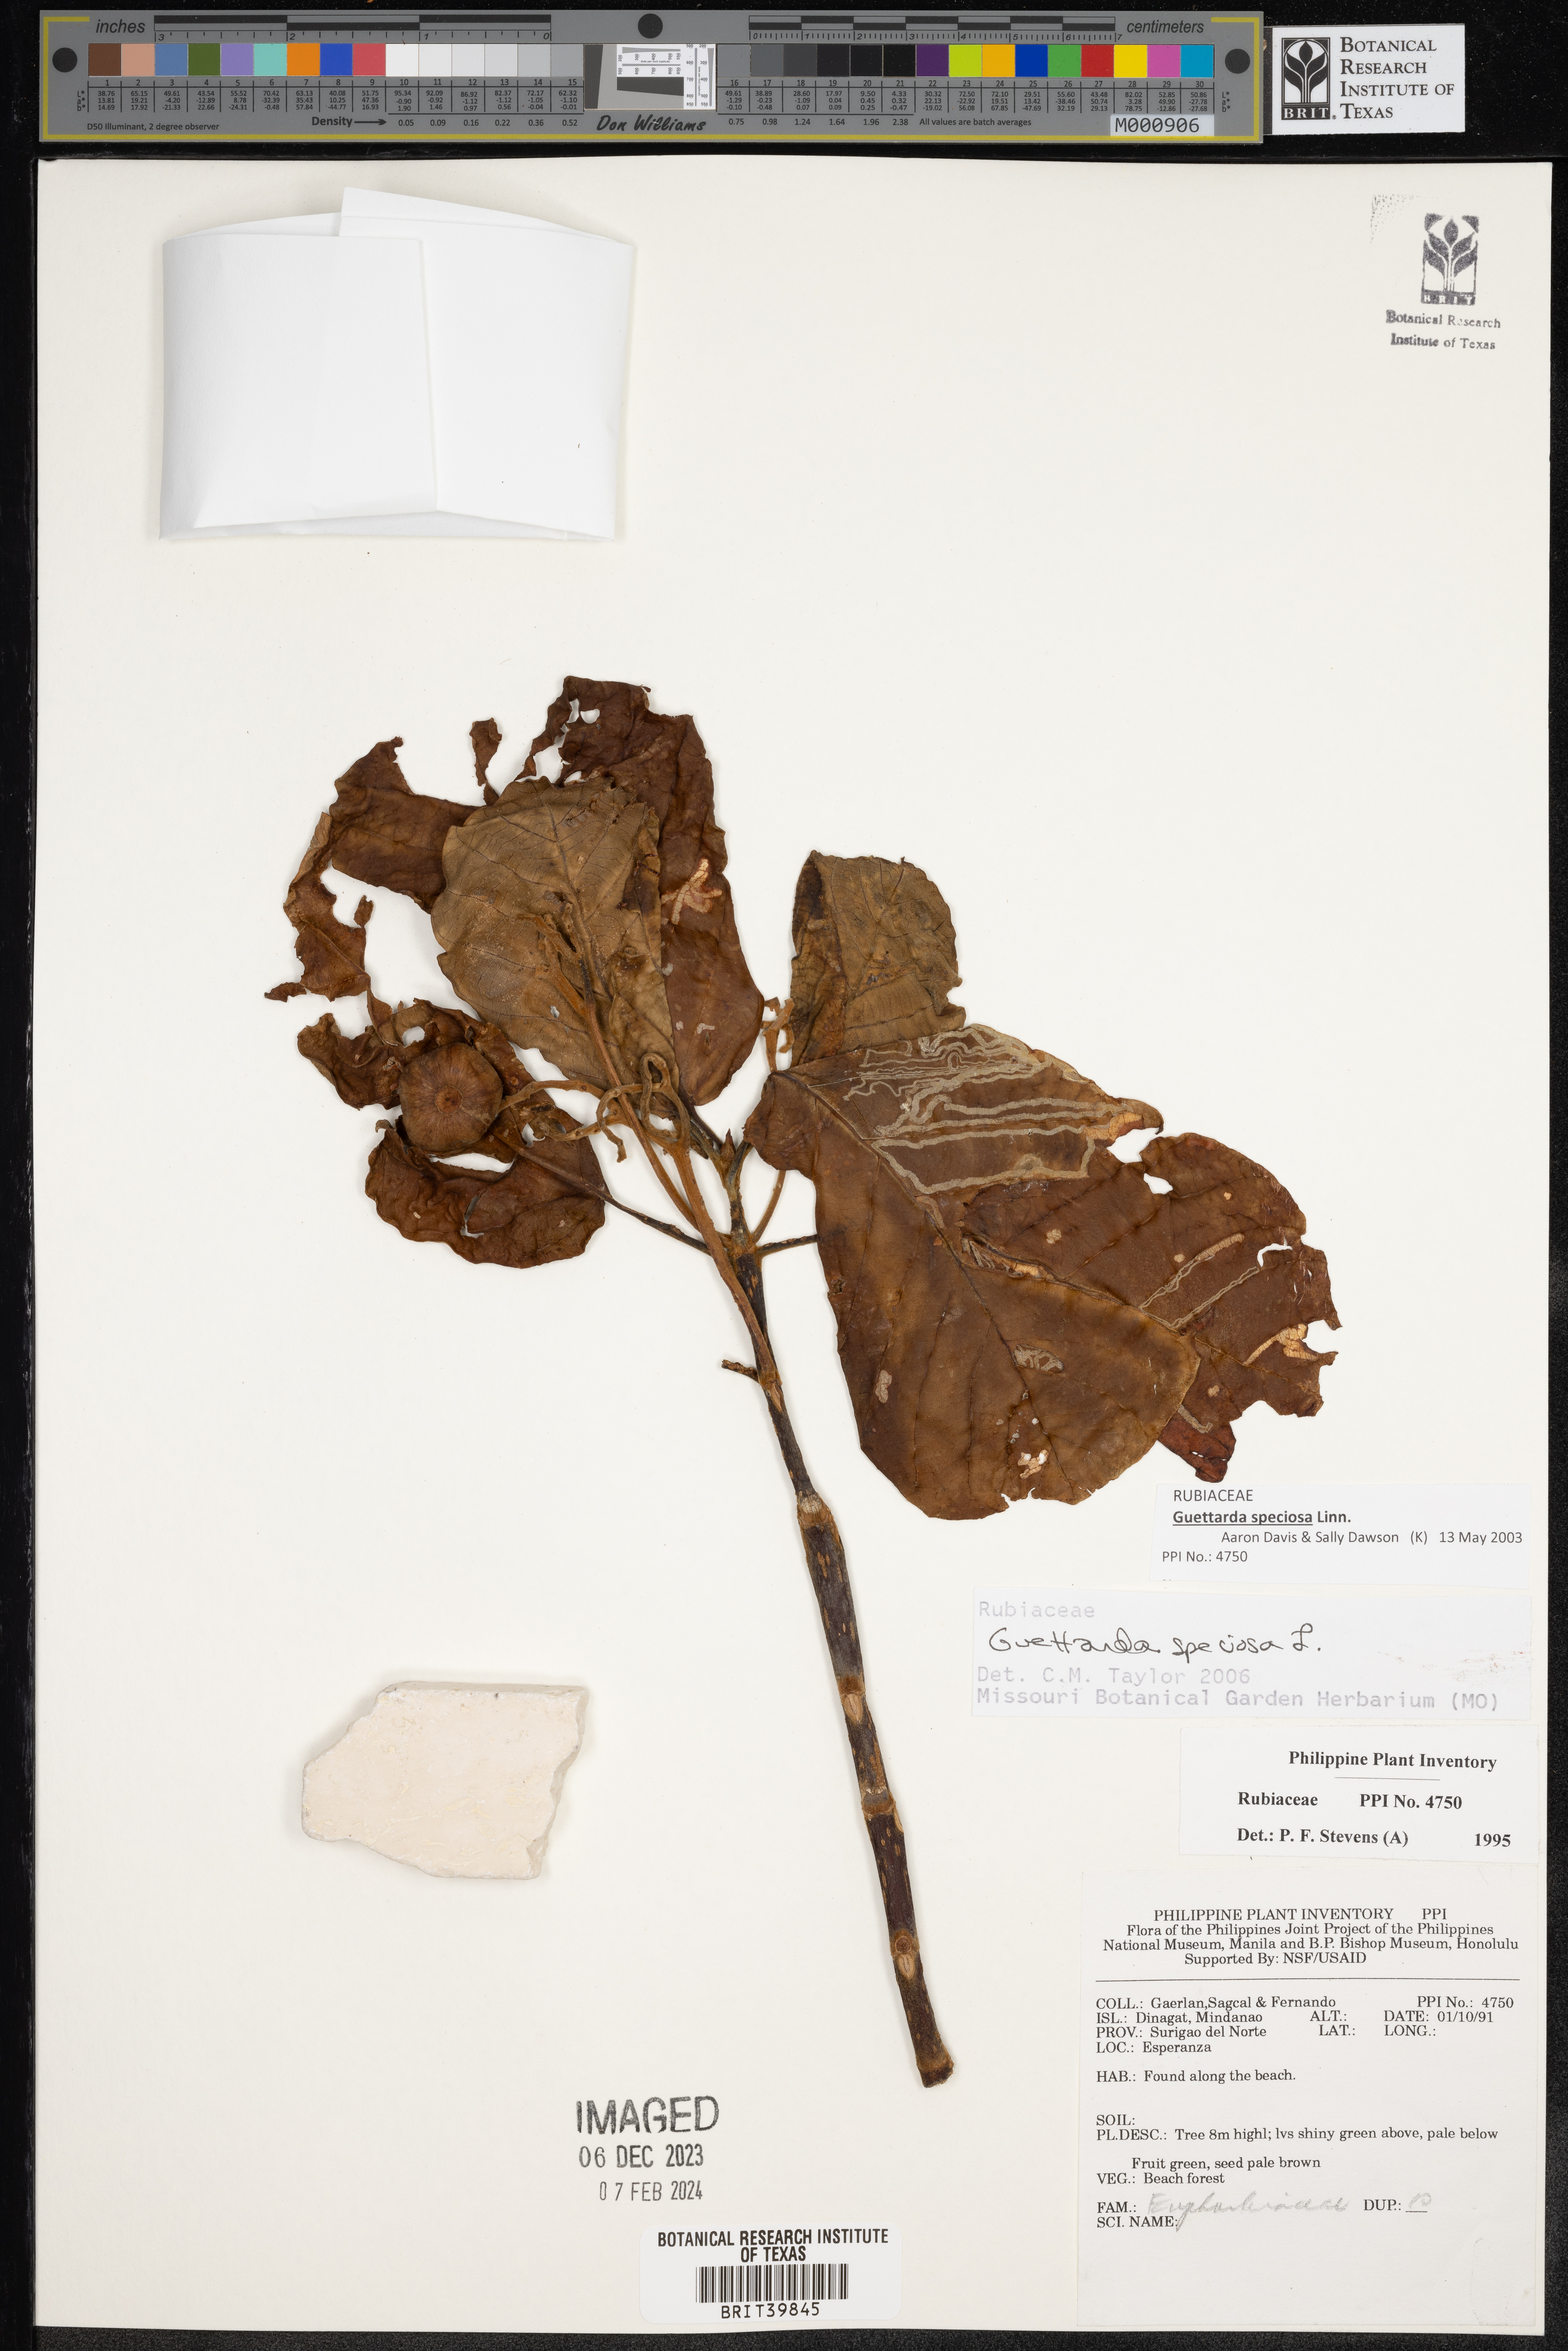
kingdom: Plantae
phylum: Tracheophyta
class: Magnoliopsida
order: Gentianales
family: Rubiaceae
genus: Guettarda
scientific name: Guettarda speciosa
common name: Sea randa
